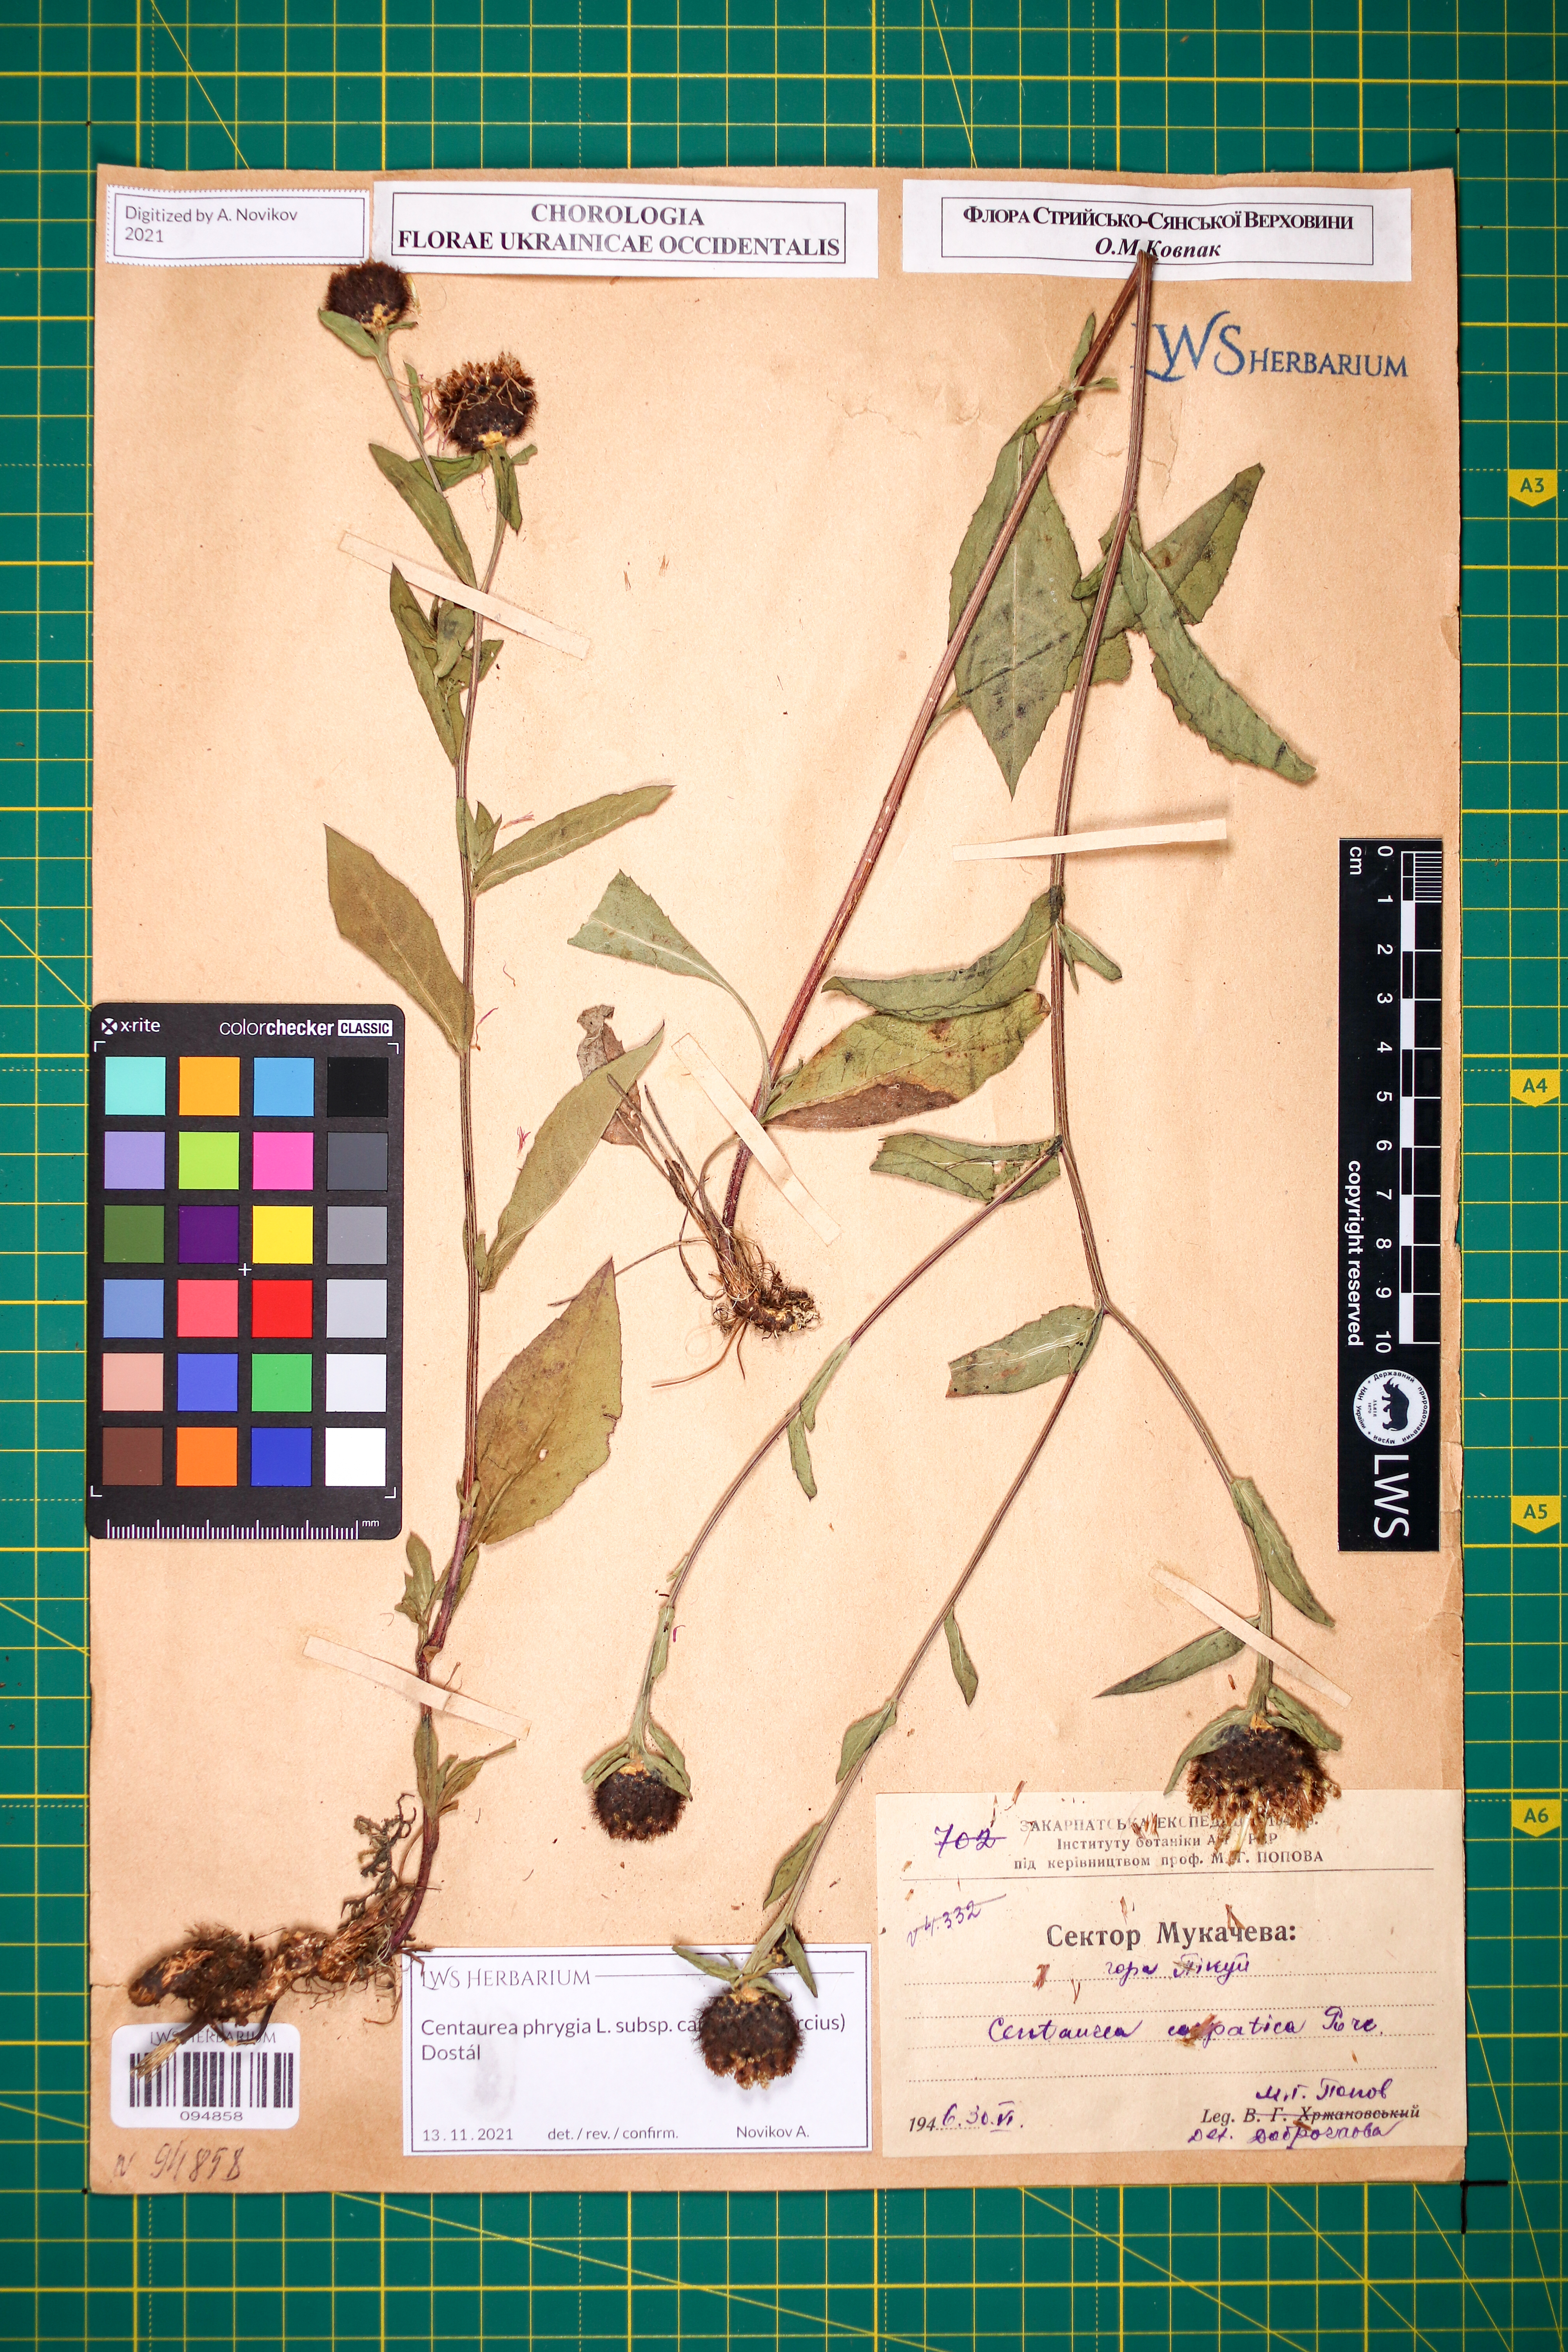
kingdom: Plantae
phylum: Tracheophyta
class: Magnoliopsida
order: Asterales
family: Asteraceae
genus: Centaurea
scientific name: Centaurea phrygia
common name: Wig knapweed
